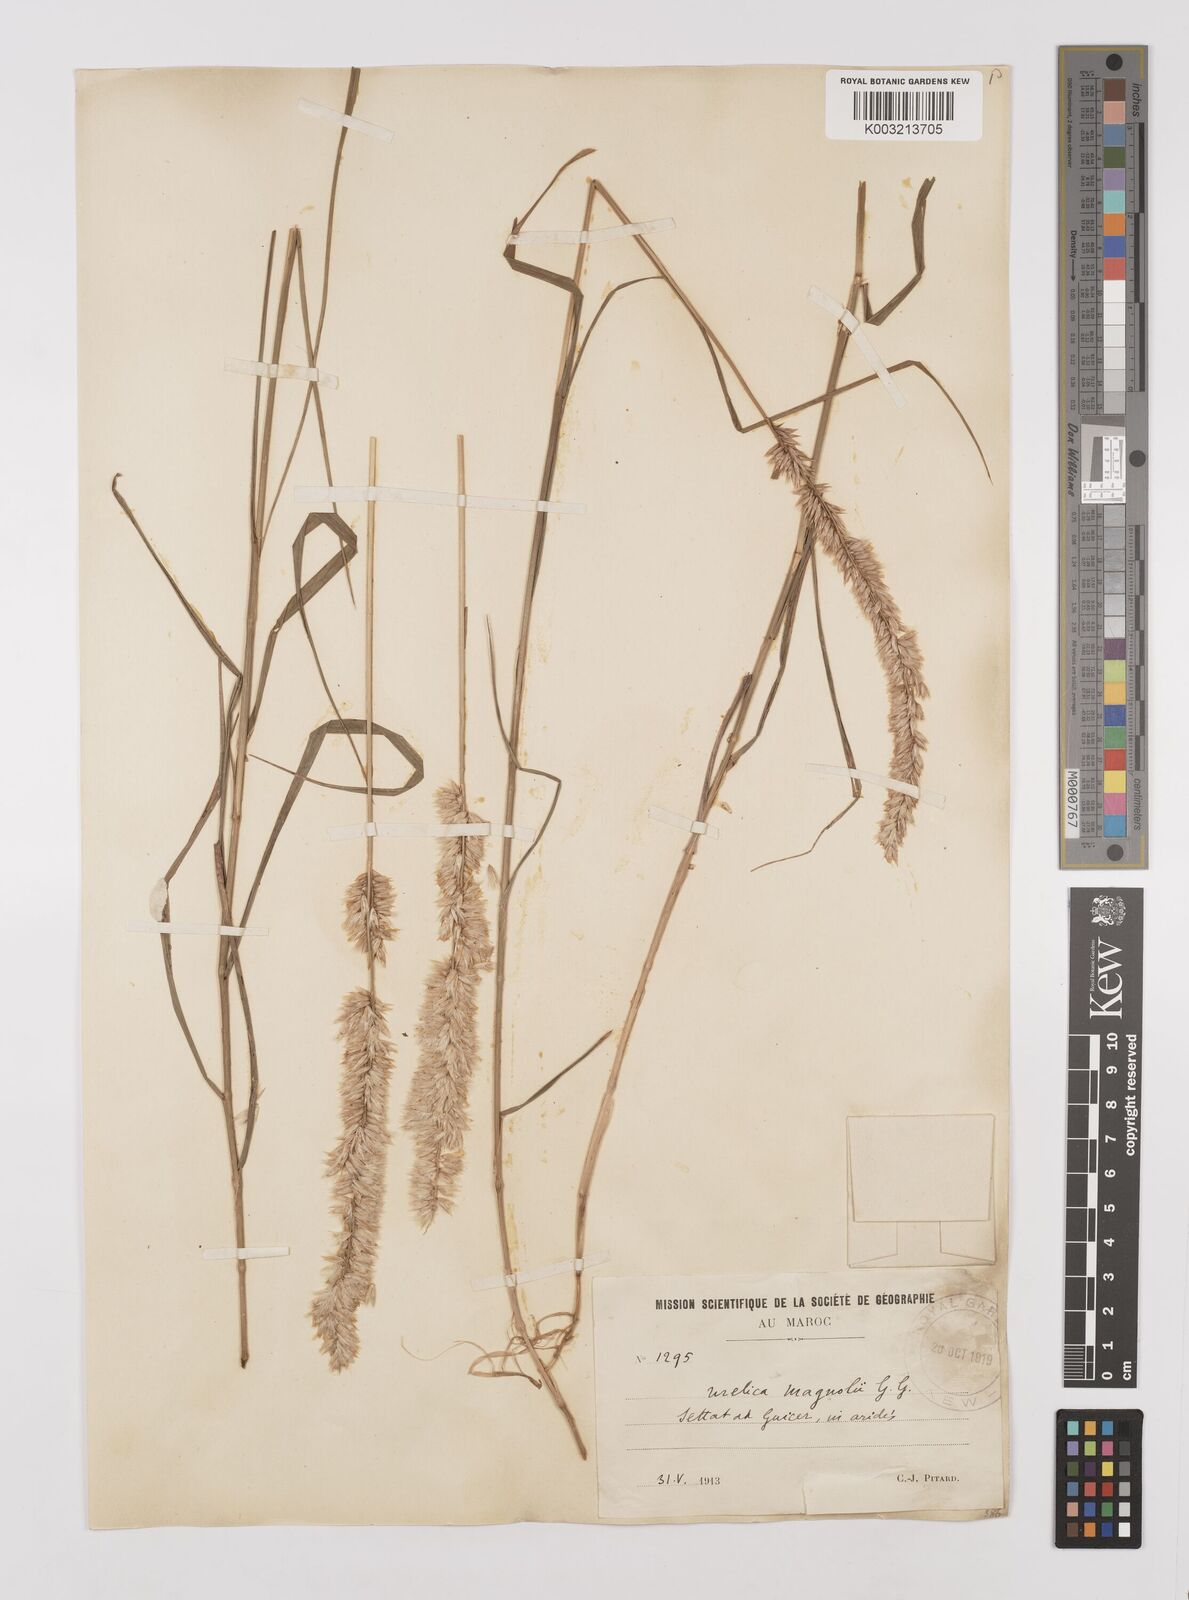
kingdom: Plantae
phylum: Tracheophyta
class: Liliopsida
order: Poales
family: Poaceae
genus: Melica
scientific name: Melica violacea
